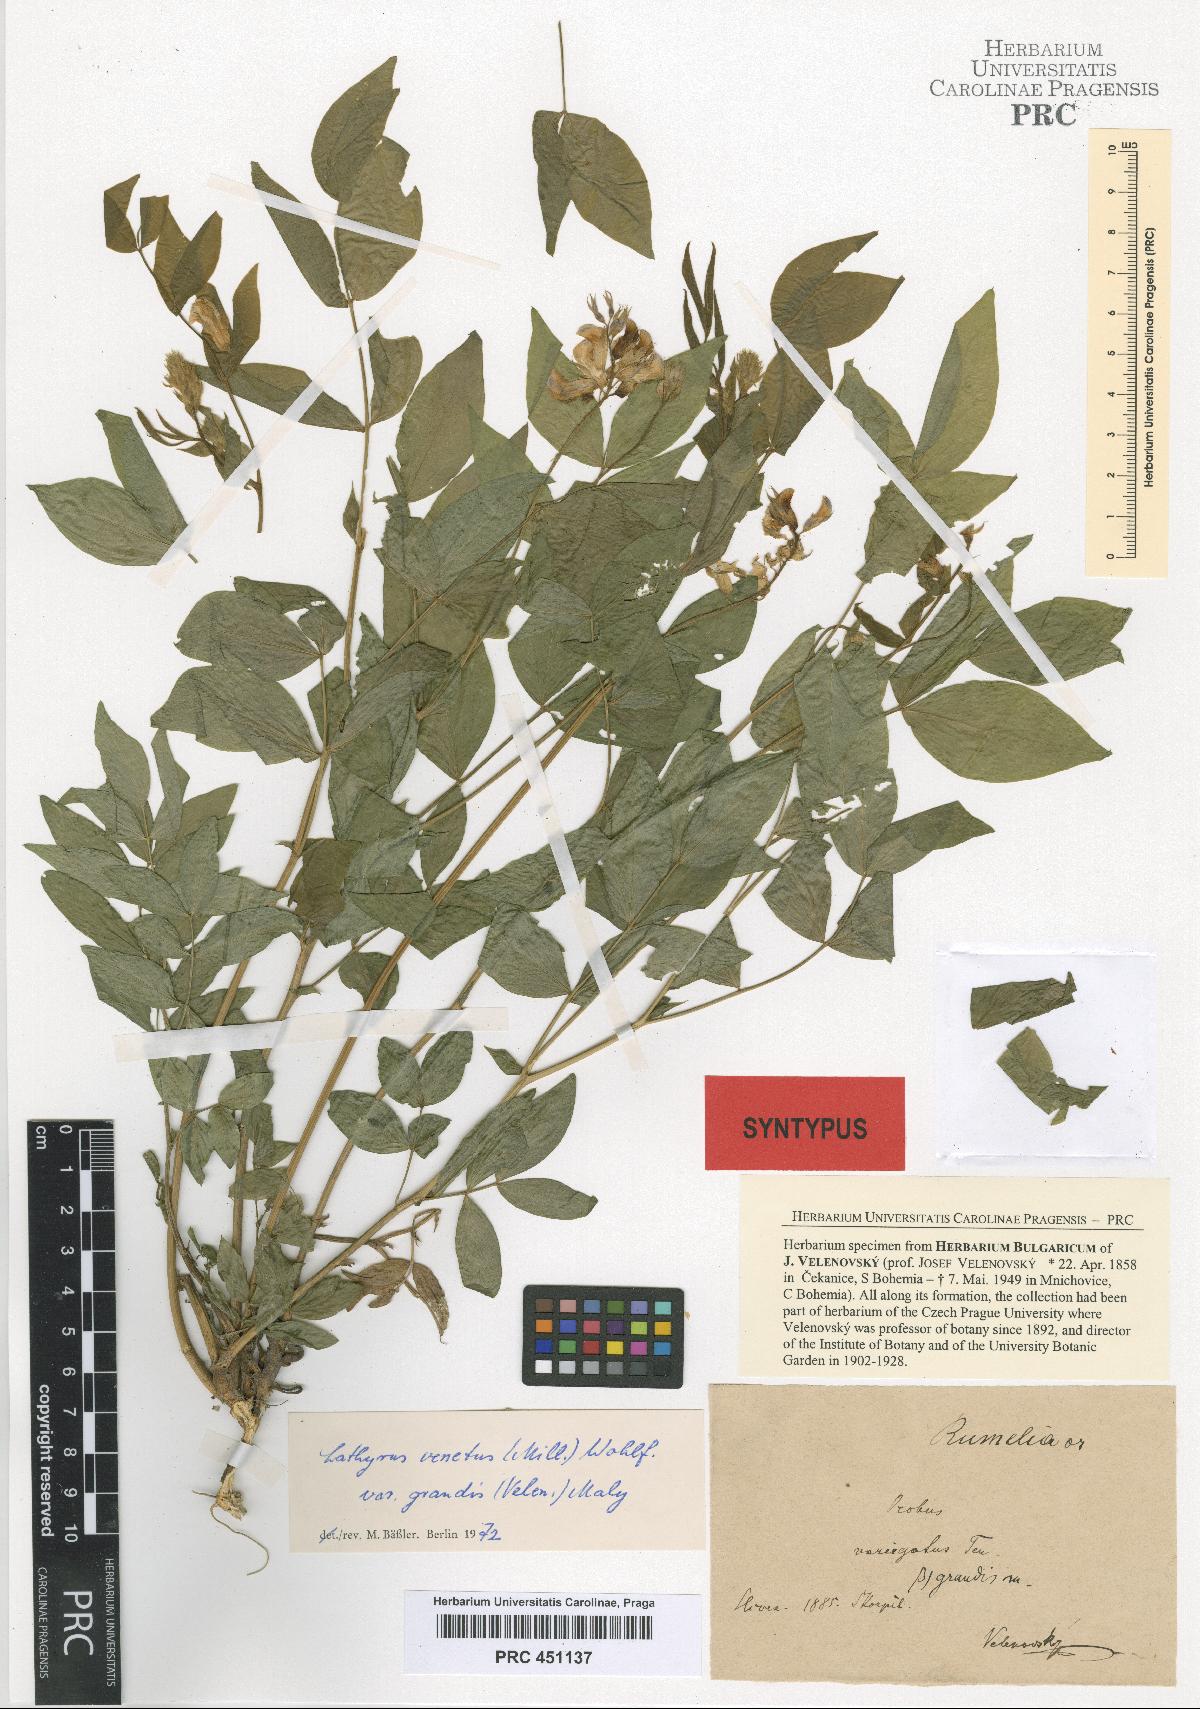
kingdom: Plantae
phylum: Tracheophyta
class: Magnoliopsida
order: Fabales
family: Fabaceae
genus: Lathyrus
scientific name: Lathyrus venetus
